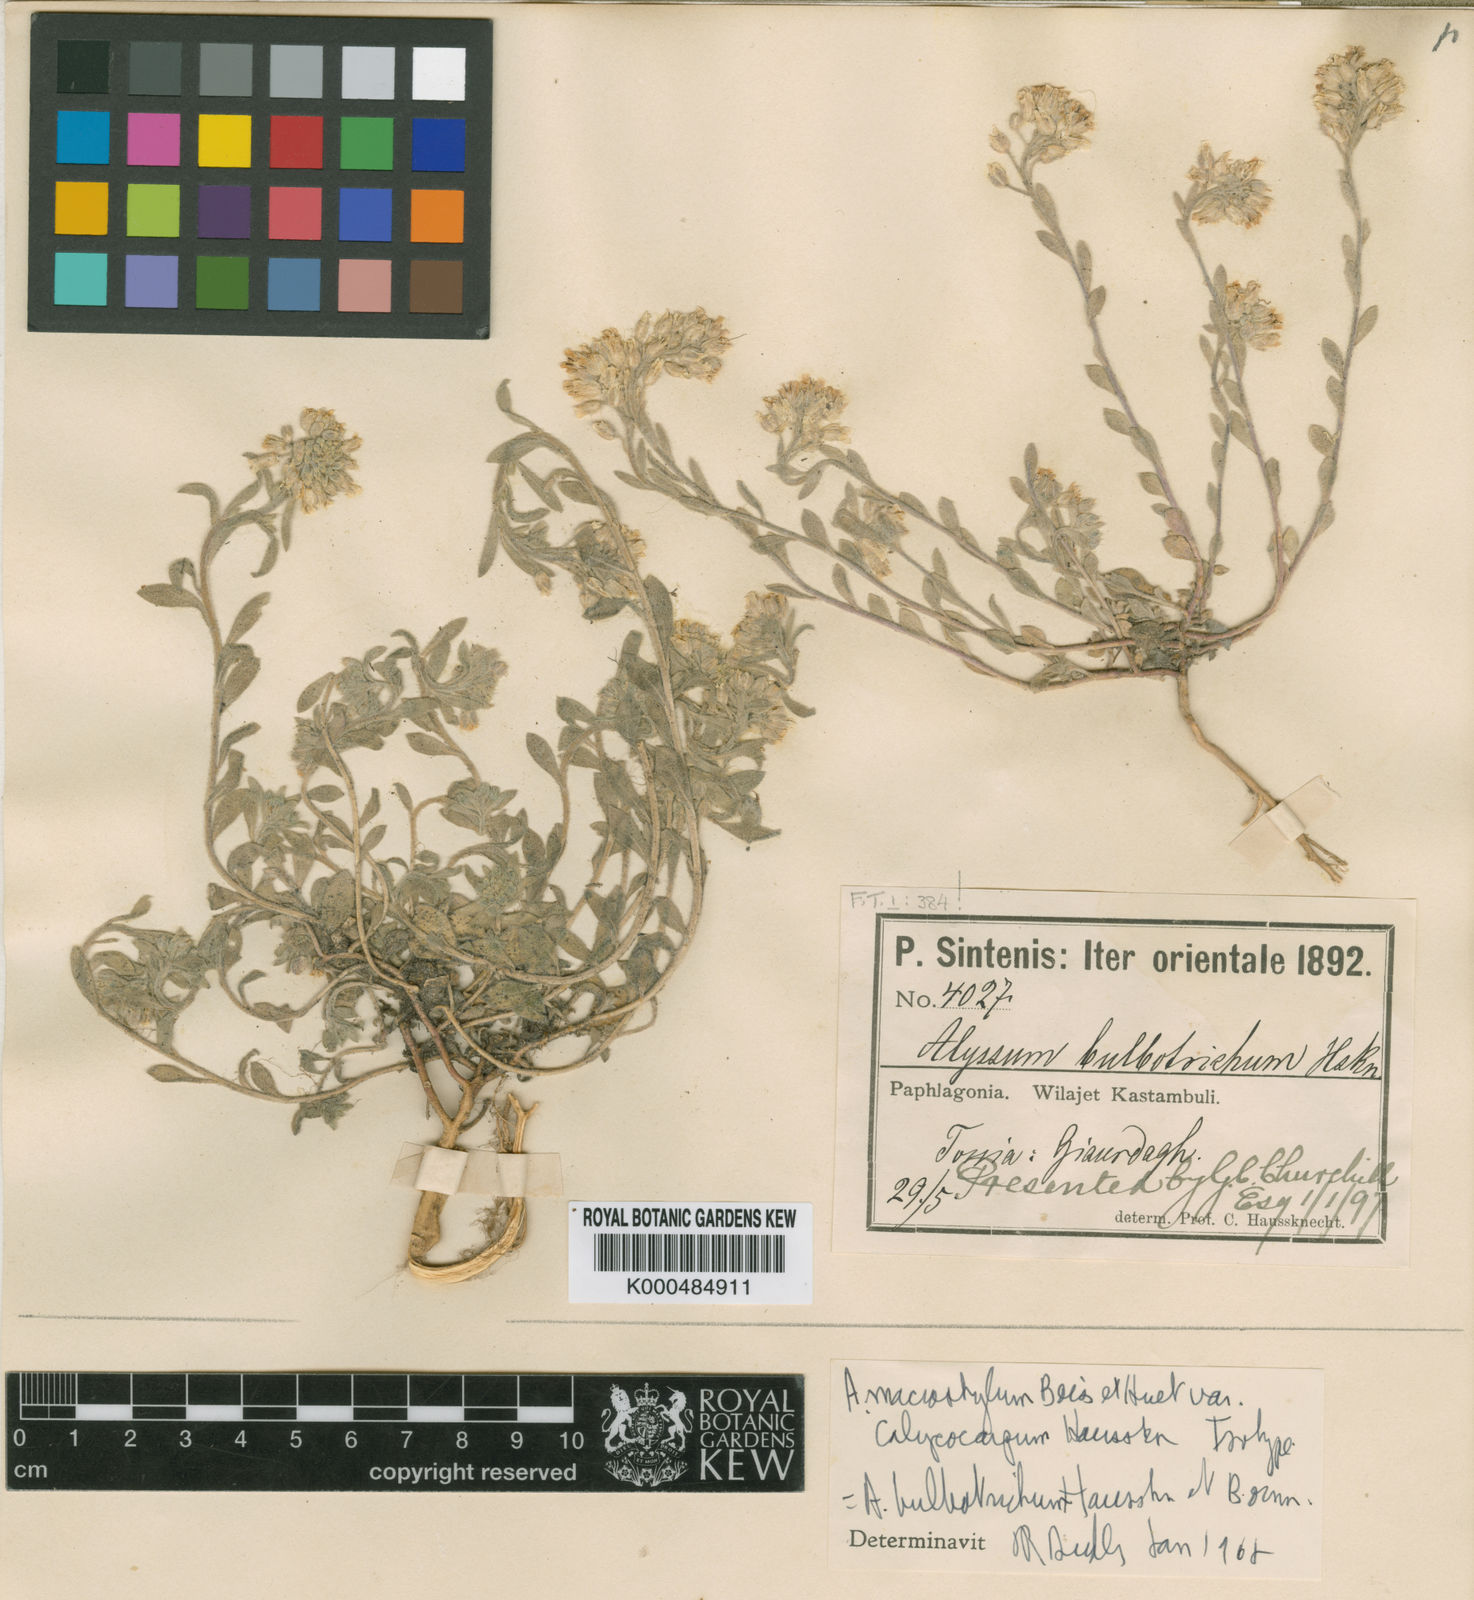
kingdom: Plantae
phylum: Tracheophyta
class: Magnoliopsida
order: Brassicales
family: Brassicaceae
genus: Alyssum
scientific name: Alyssum bulbotrichum
